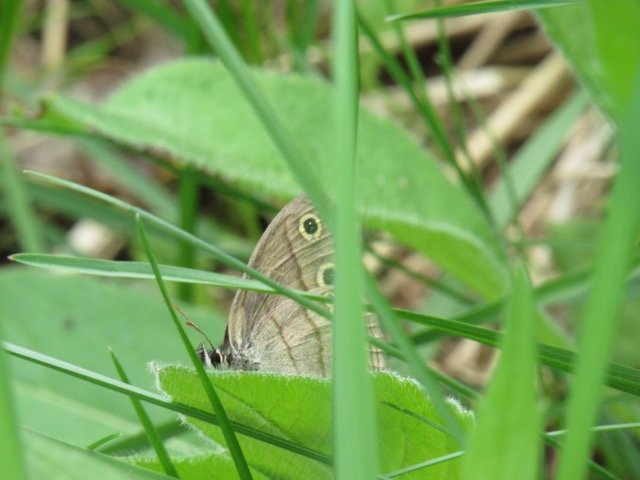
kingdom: Animalia
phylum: Arthropoda
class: Insecta
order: Lepidoptera
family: Nymphalidae
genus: Euptychia
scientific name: Euptychia cymela
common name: Little Wood Satyr
